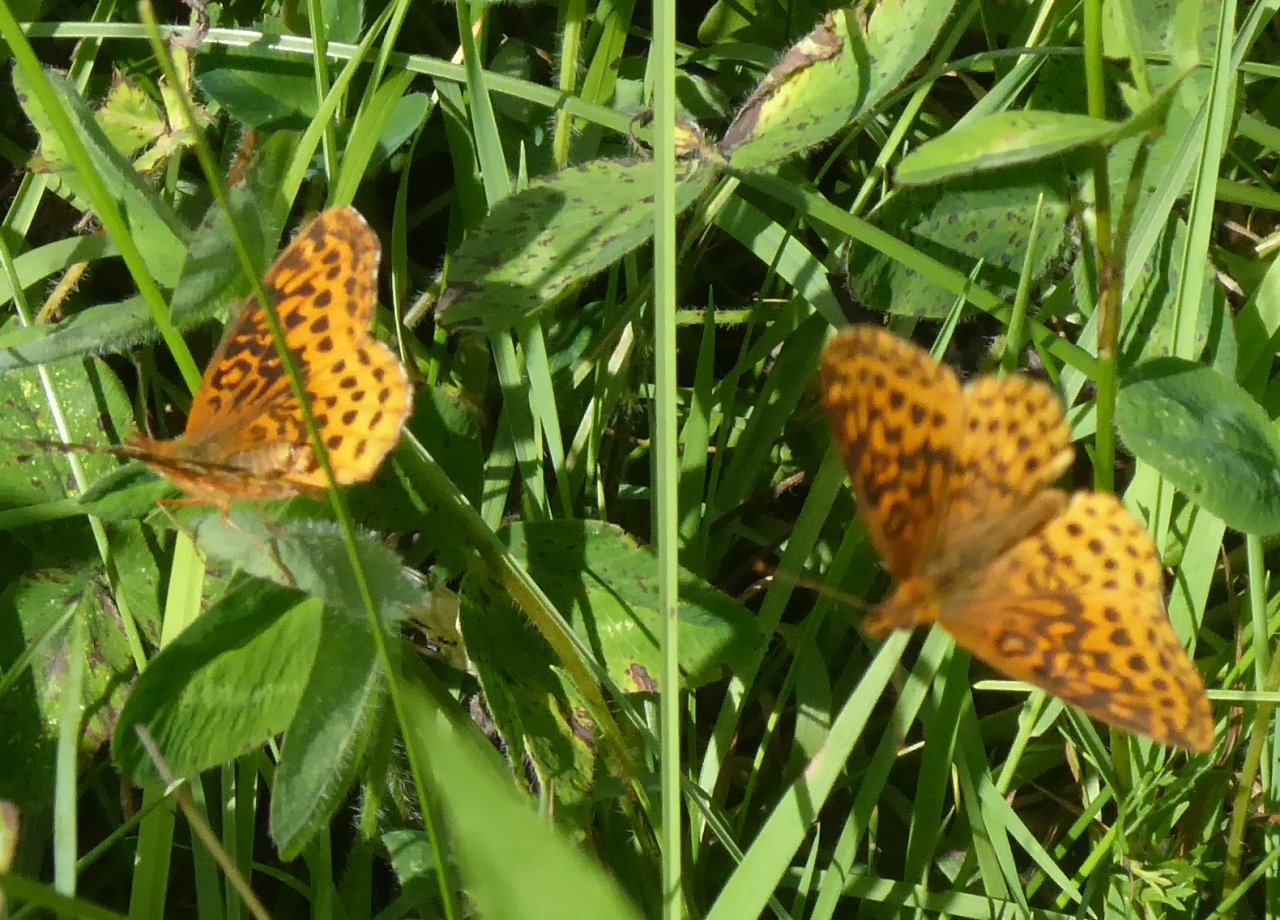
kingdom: Animalia
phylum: Arthropoda
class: Insecta
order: Lepidoptera
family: Nymphalidae
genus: Clossiana
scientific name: Clossiana toddi
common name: Meadow Fritillary
